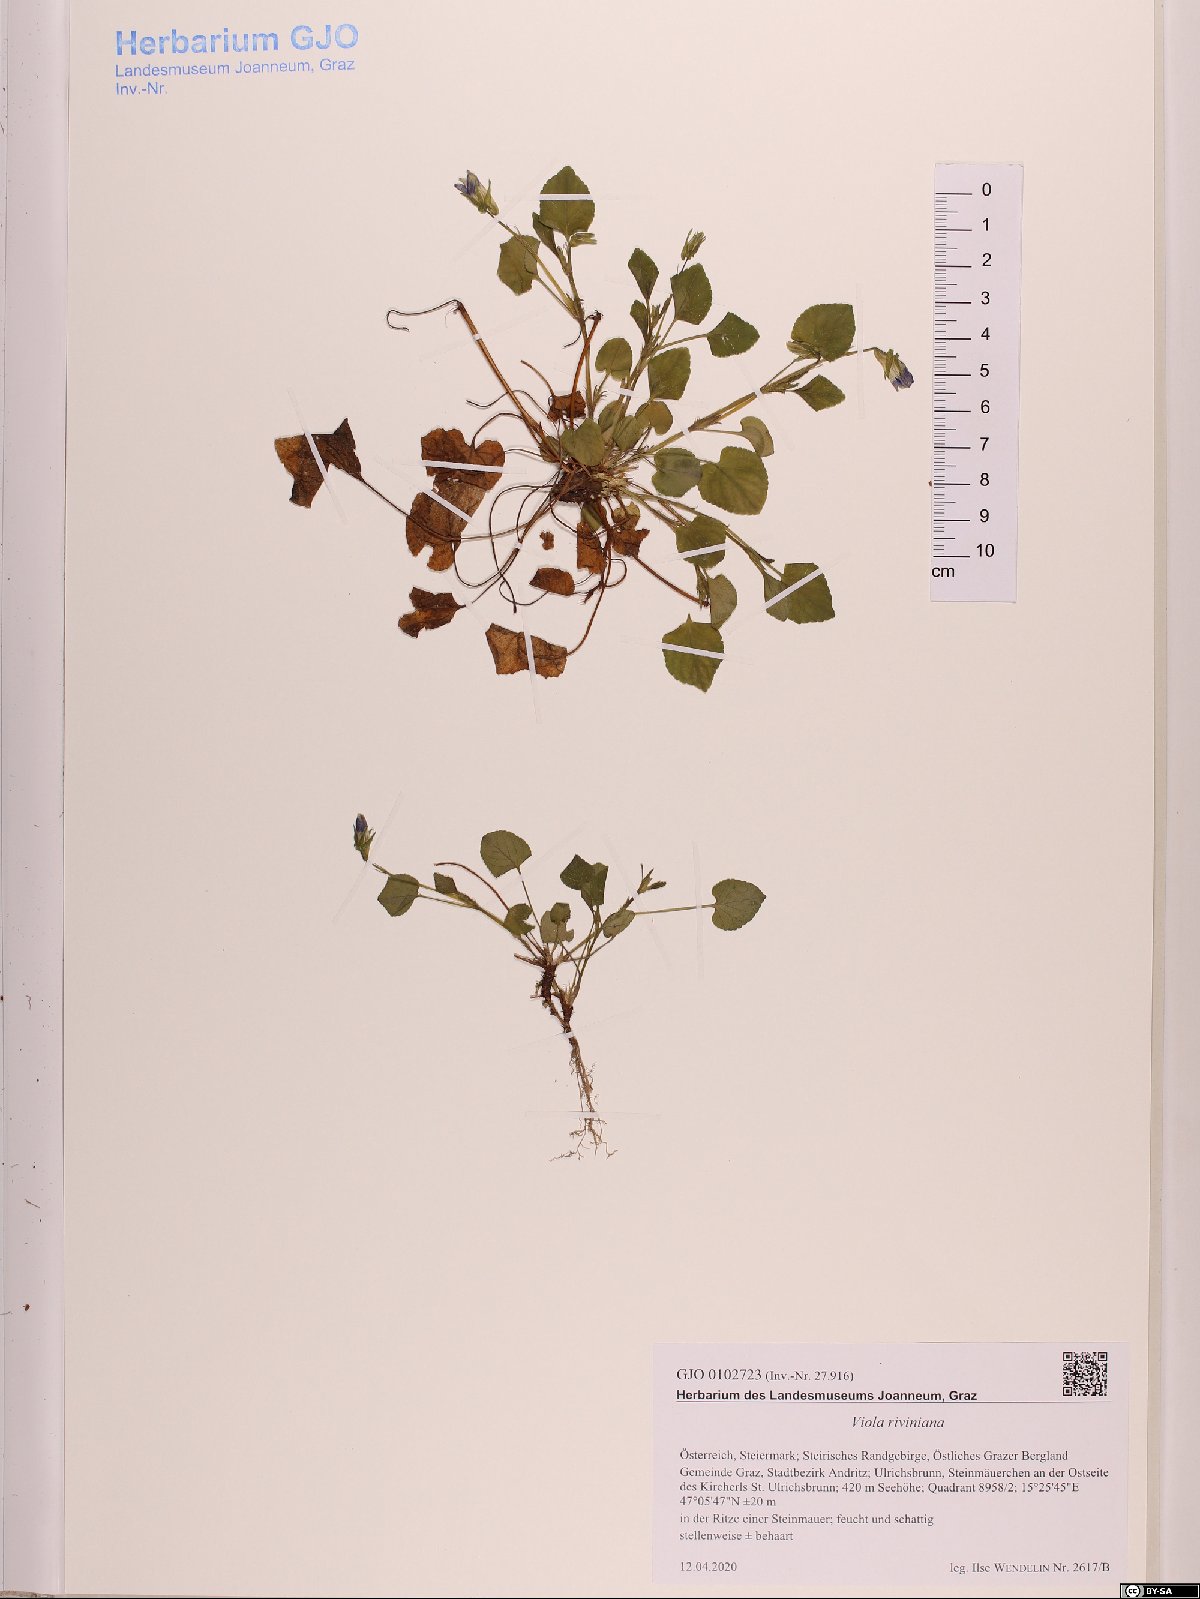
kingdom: Plantae
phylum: Tracheophyta
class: Magnoliopsida
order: Malpighiales
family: Violaceae
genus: Viola
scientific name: Viola riviniana
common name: Common dog-violet
